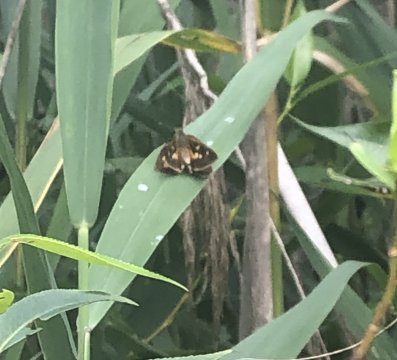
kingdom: Animalia
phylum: Arthropoda
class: Insecta
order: Lepidoptera
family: Hesperiidae
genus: Poanes
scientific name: Poanes viator
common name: Broad-winged Skipper
